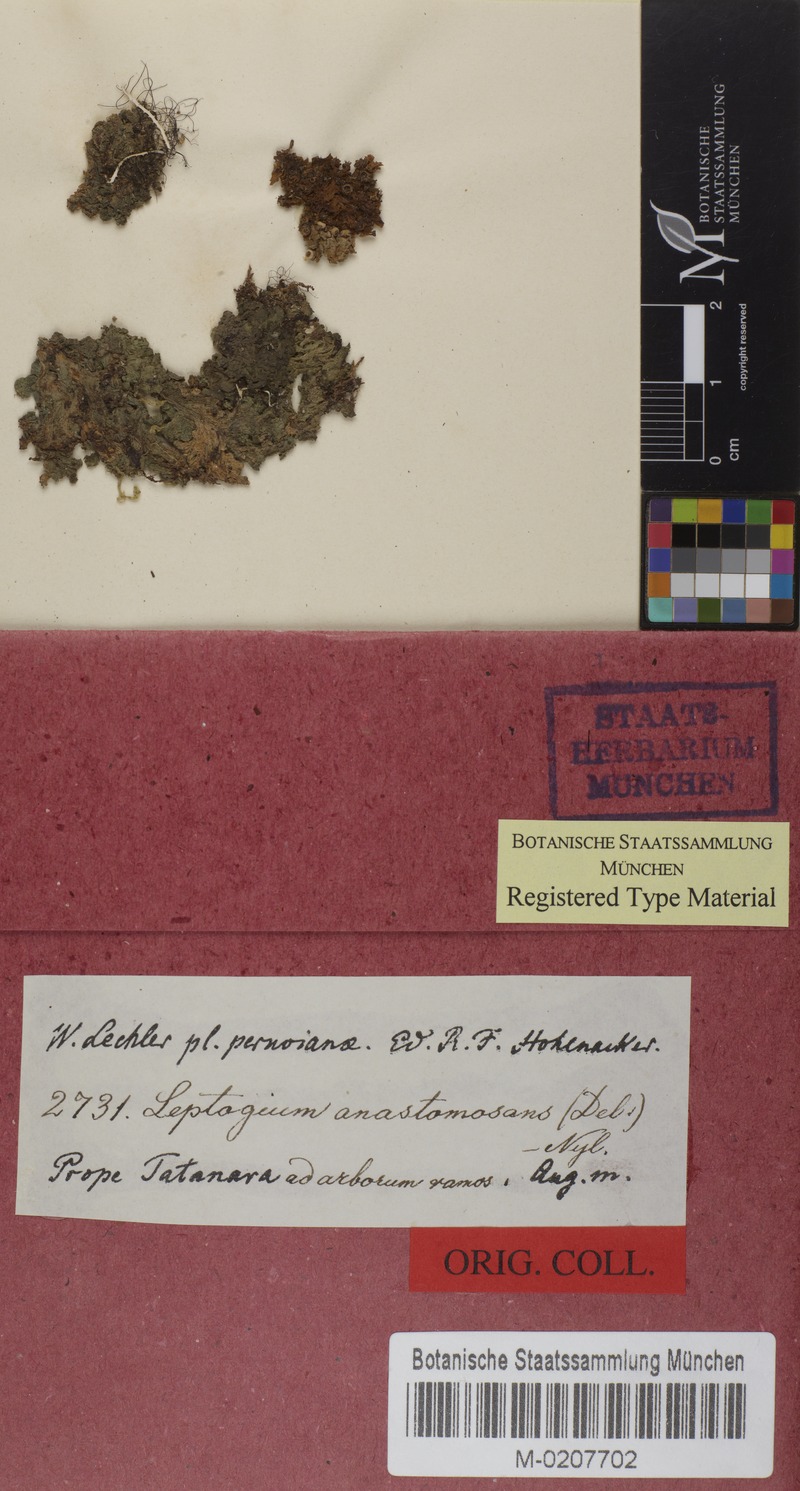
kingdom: Fungi
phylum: Ascomycota
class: Lecanoromycetes
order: Peltigerales
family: Collemataceae
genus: Leptogium
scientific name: Leptogium anastomosans
